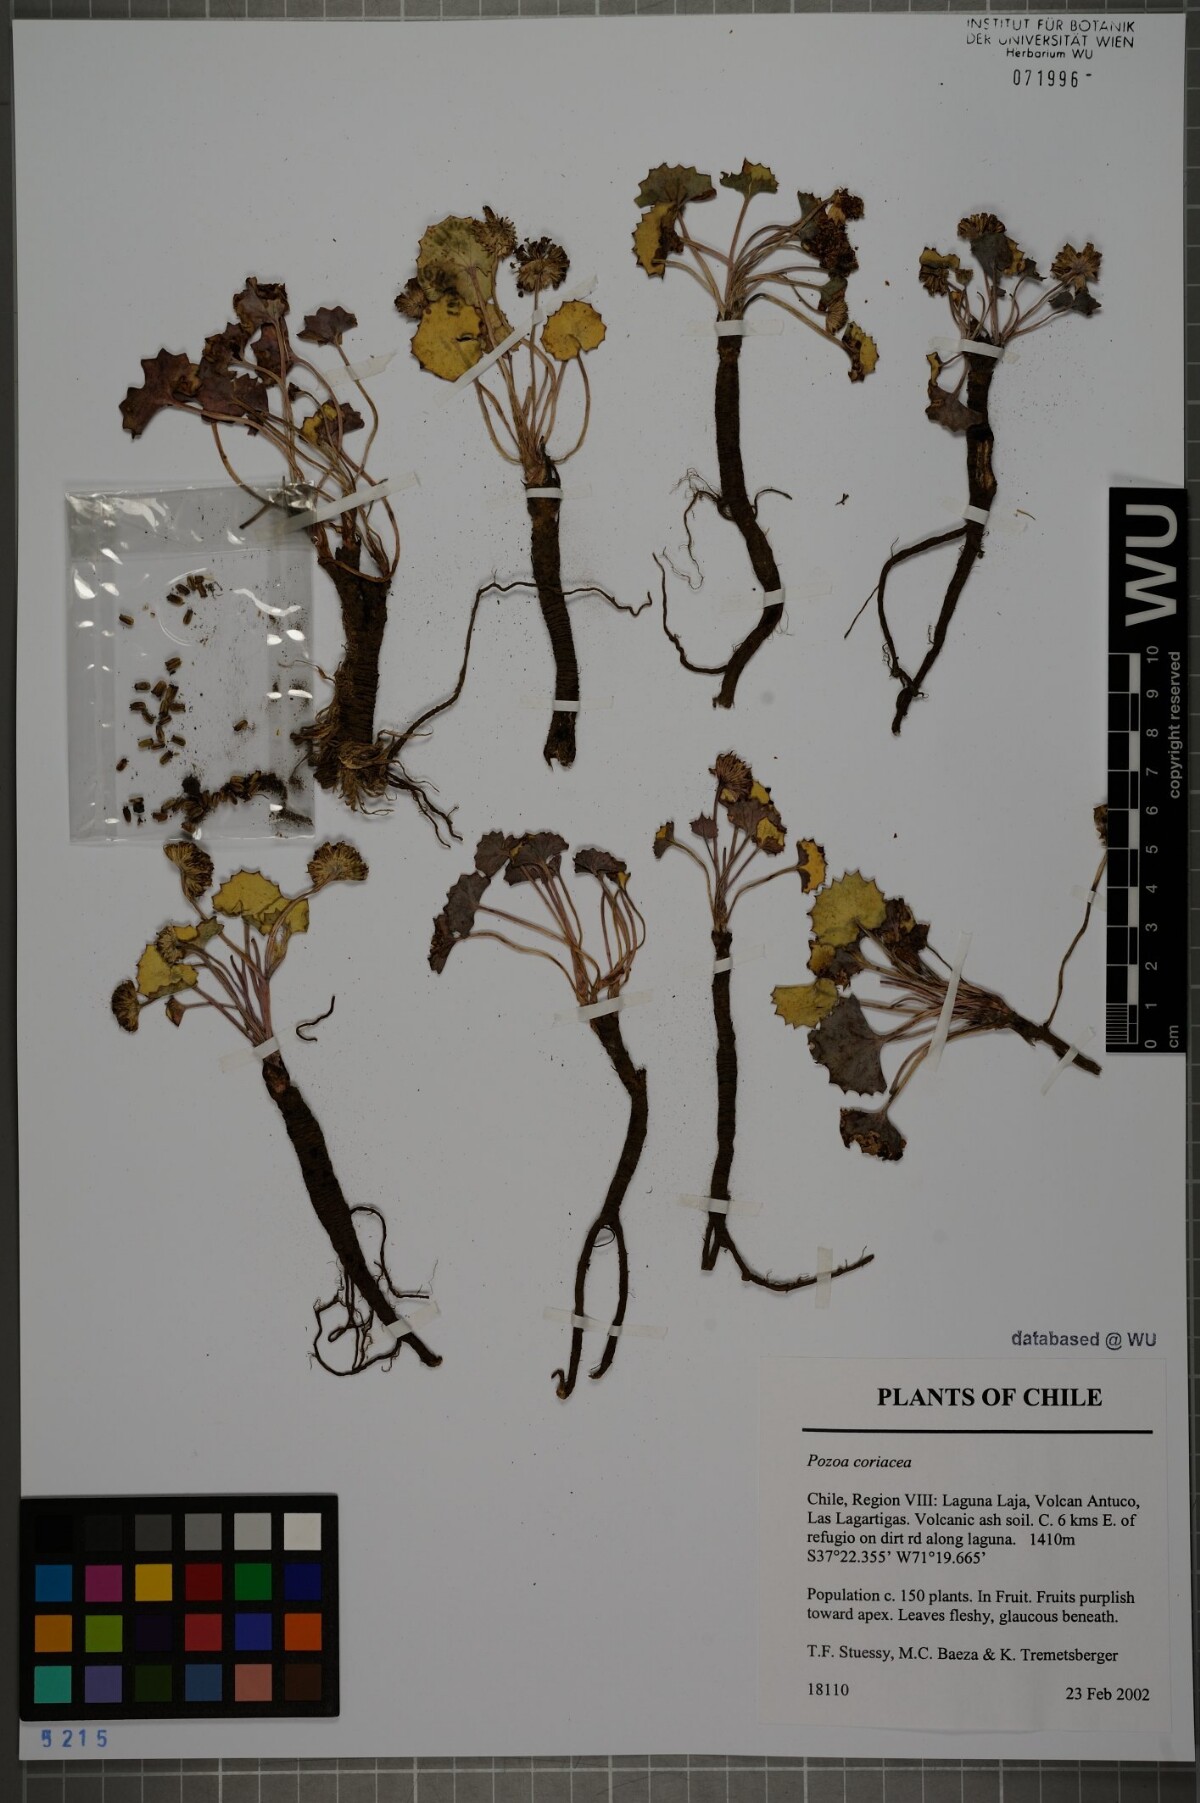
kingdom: Plantae
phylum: Tracheophyta
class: Magnoliopsida
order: Apiales
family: Apiaceae
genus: Pozoa
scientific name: Pozoa coriacea
